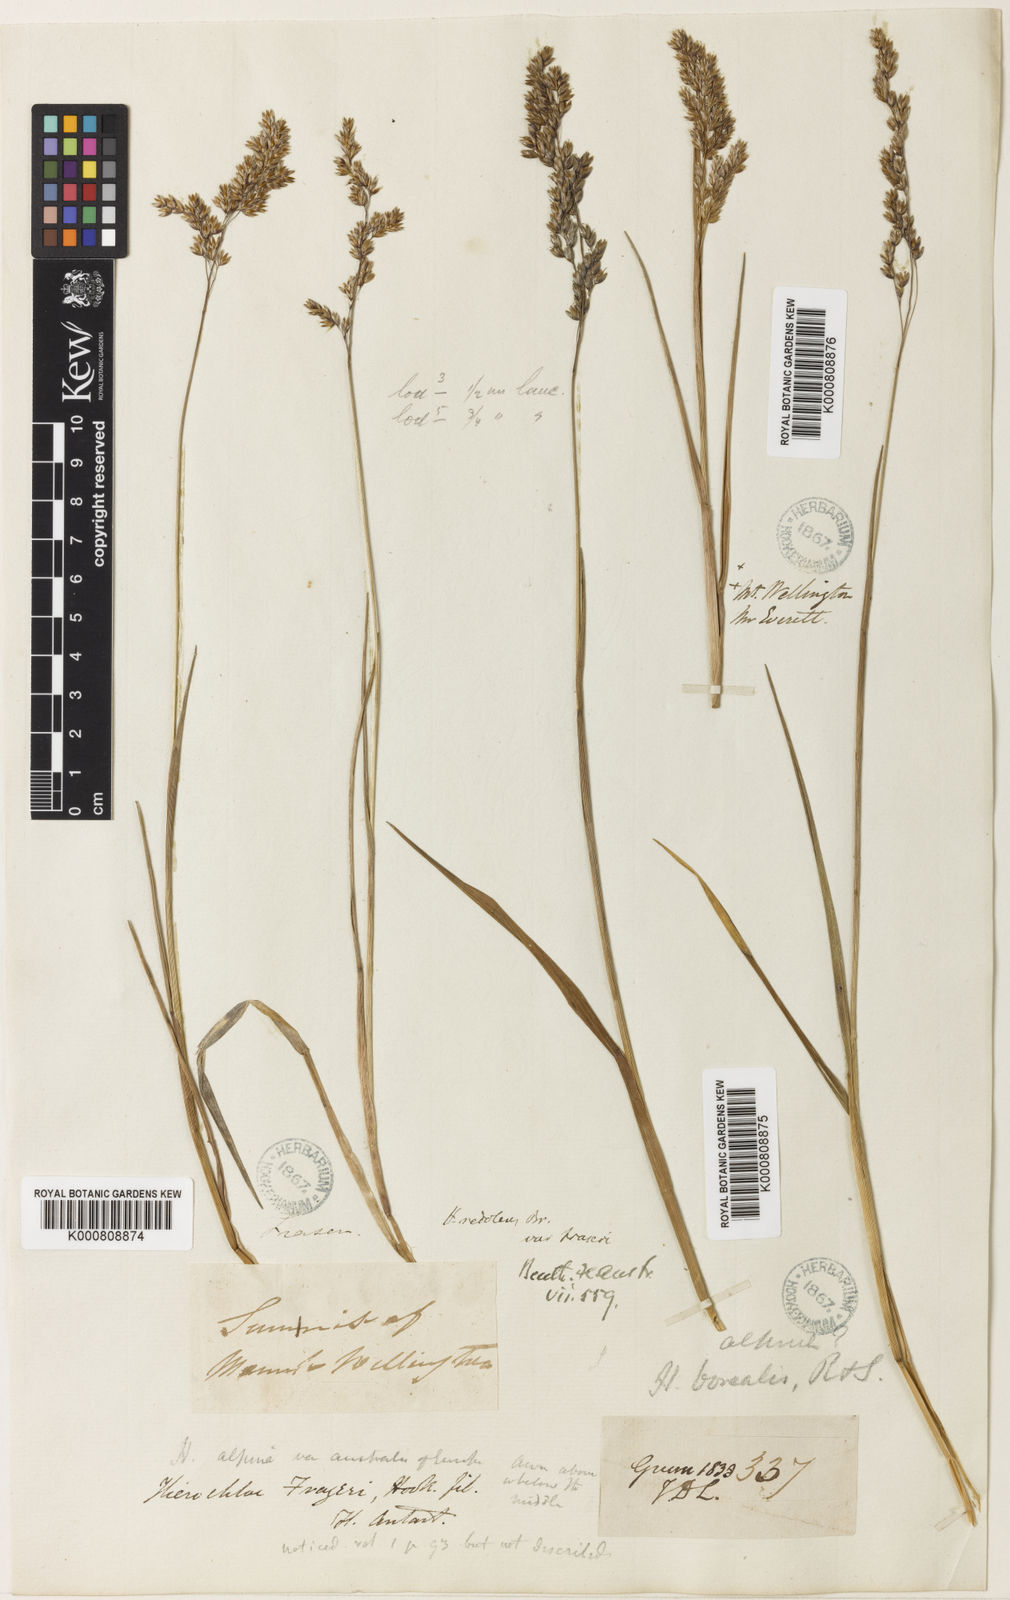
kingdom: Plantae
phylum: Tracheophyta
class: Liliopsida
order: Poales
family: Poaceae
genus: Hierochloe
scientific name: Hierochloe
